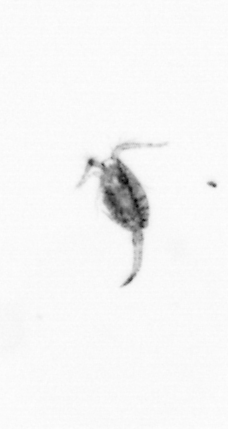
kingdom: Animalia
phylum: Arthropoda
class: Copepoda
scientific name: Copepoda
